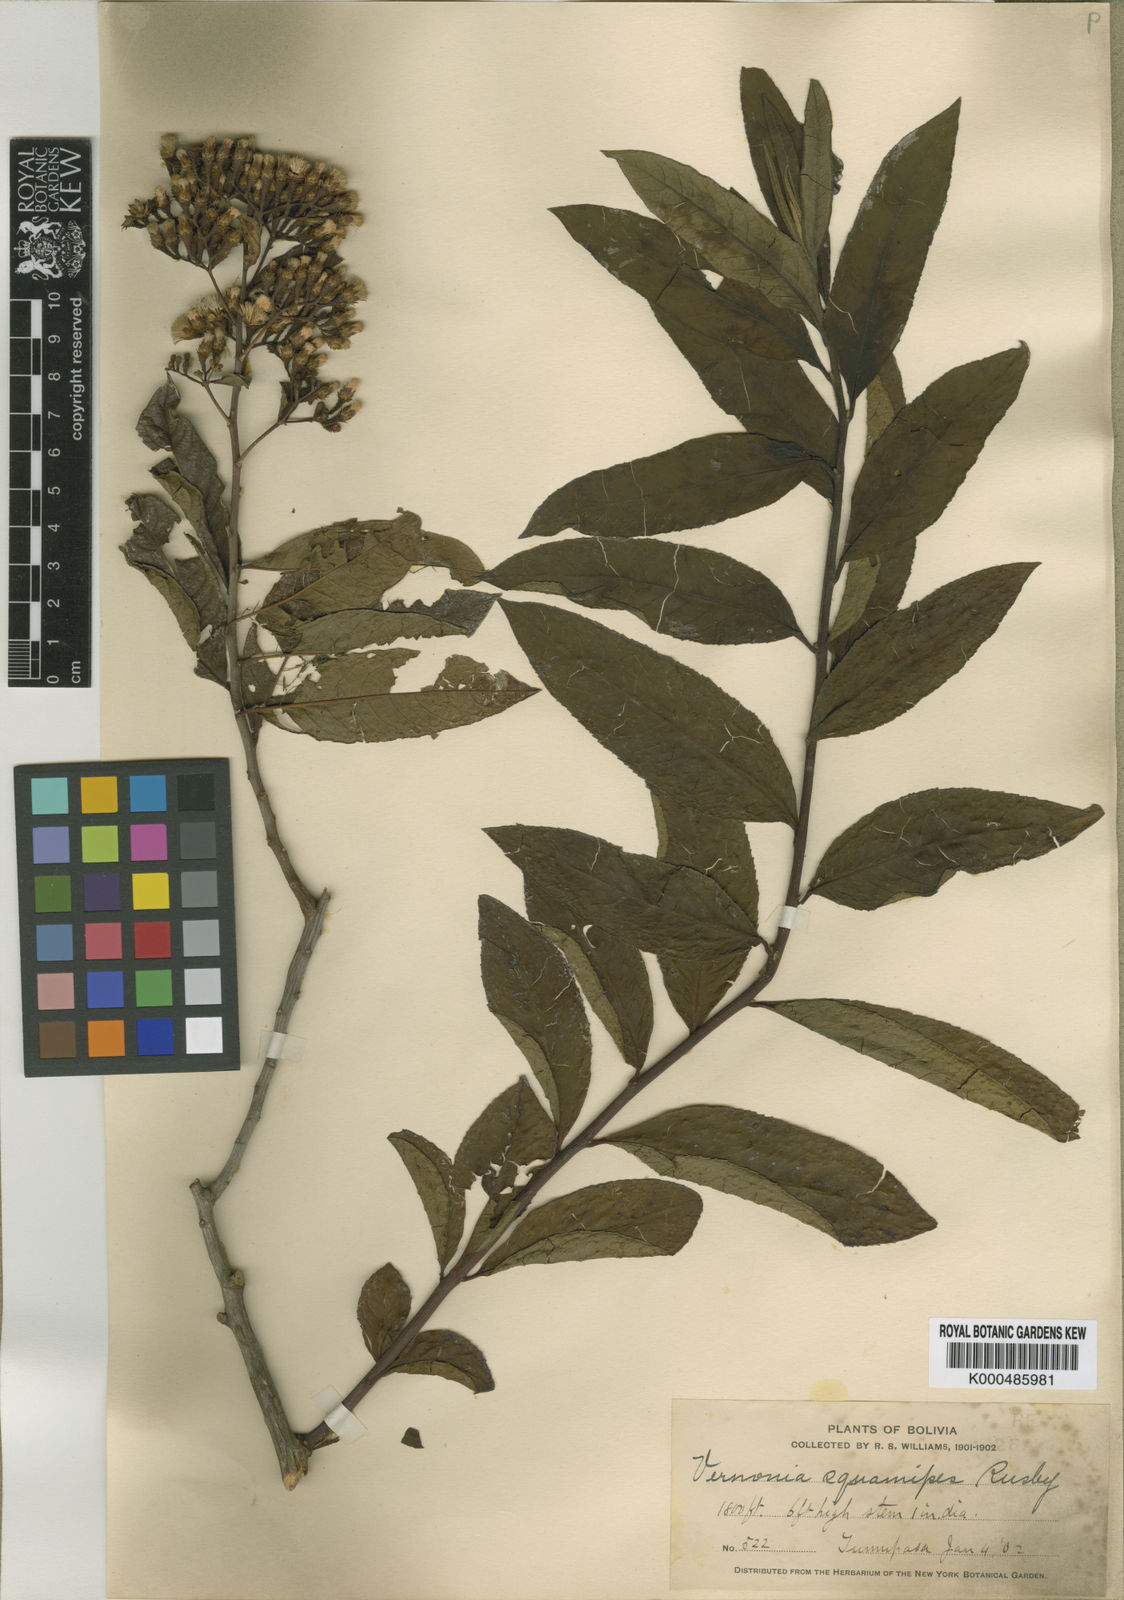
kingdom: Plantae
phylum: Tracheophyta
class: Magnoliopsida
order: Asterales
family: Asteraceae
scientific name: Asteraceae
